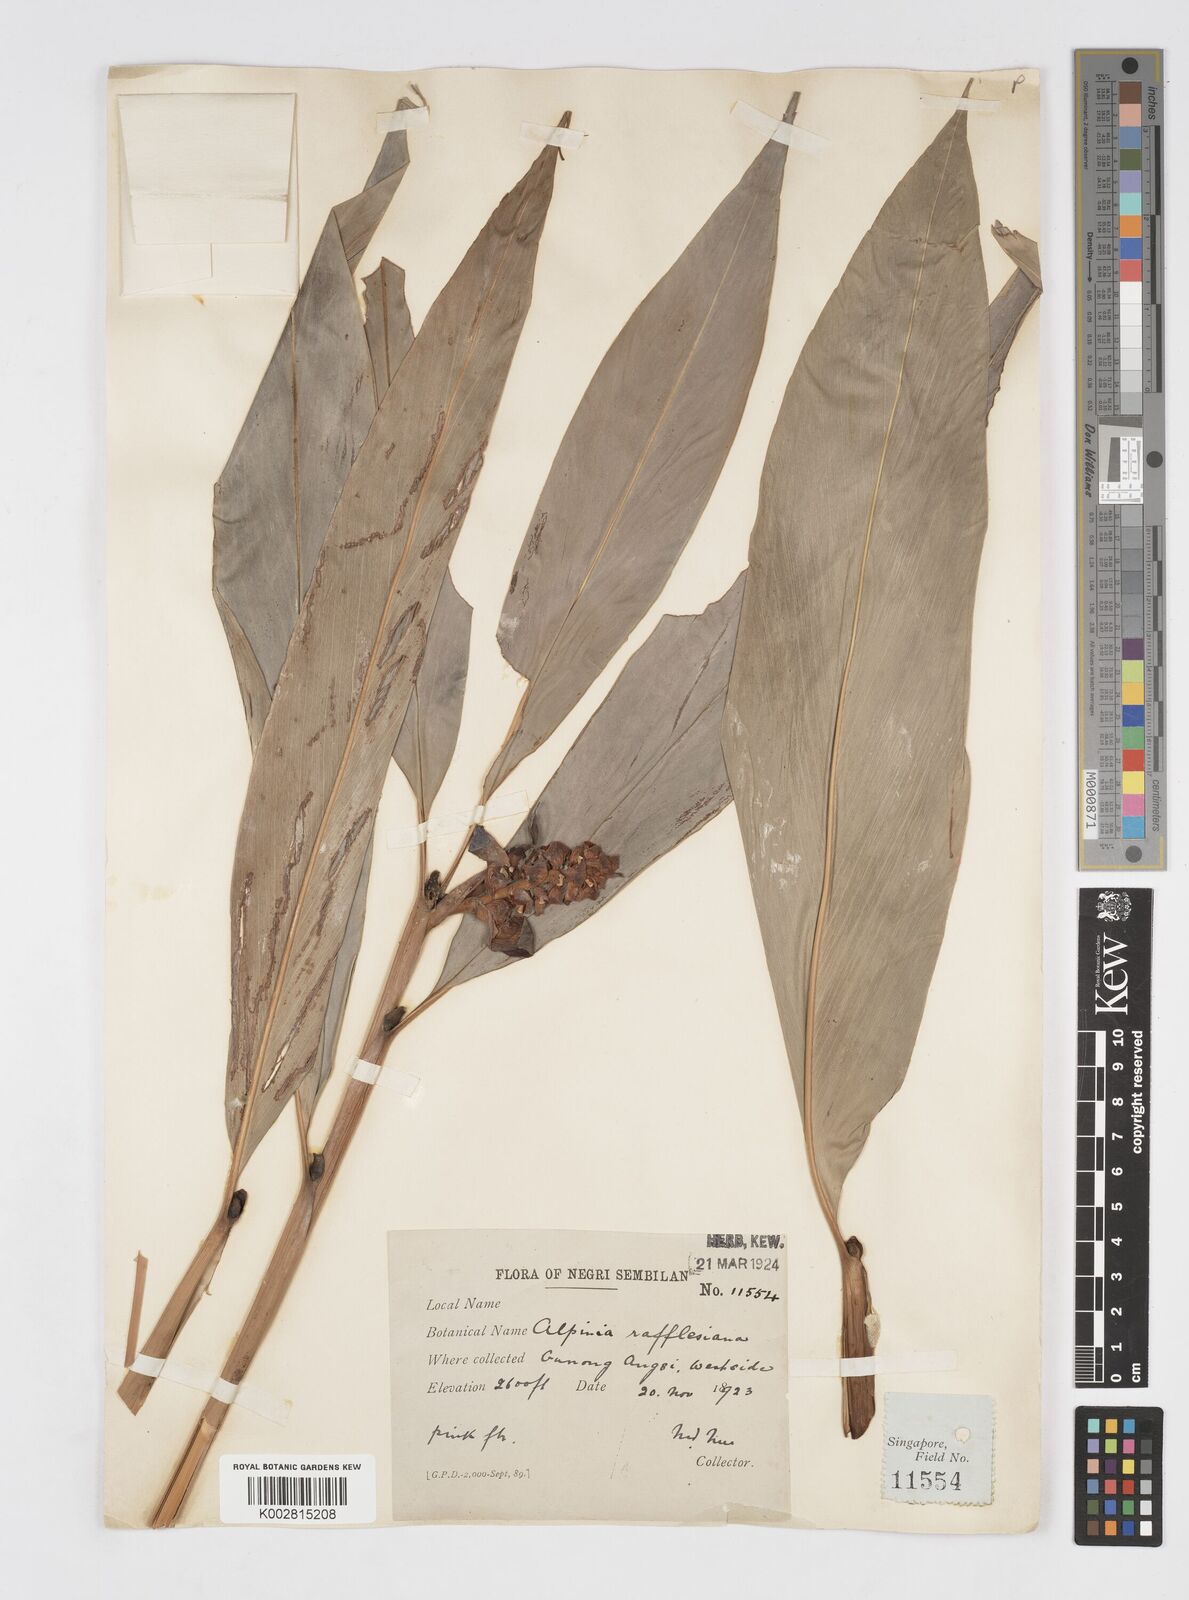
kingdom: Plantae
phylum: Tracheophyta
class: Liliopsida
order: Zingiberales
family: Zingiberaceae
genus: Alpinia
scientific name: Alpinia rafflesiana
